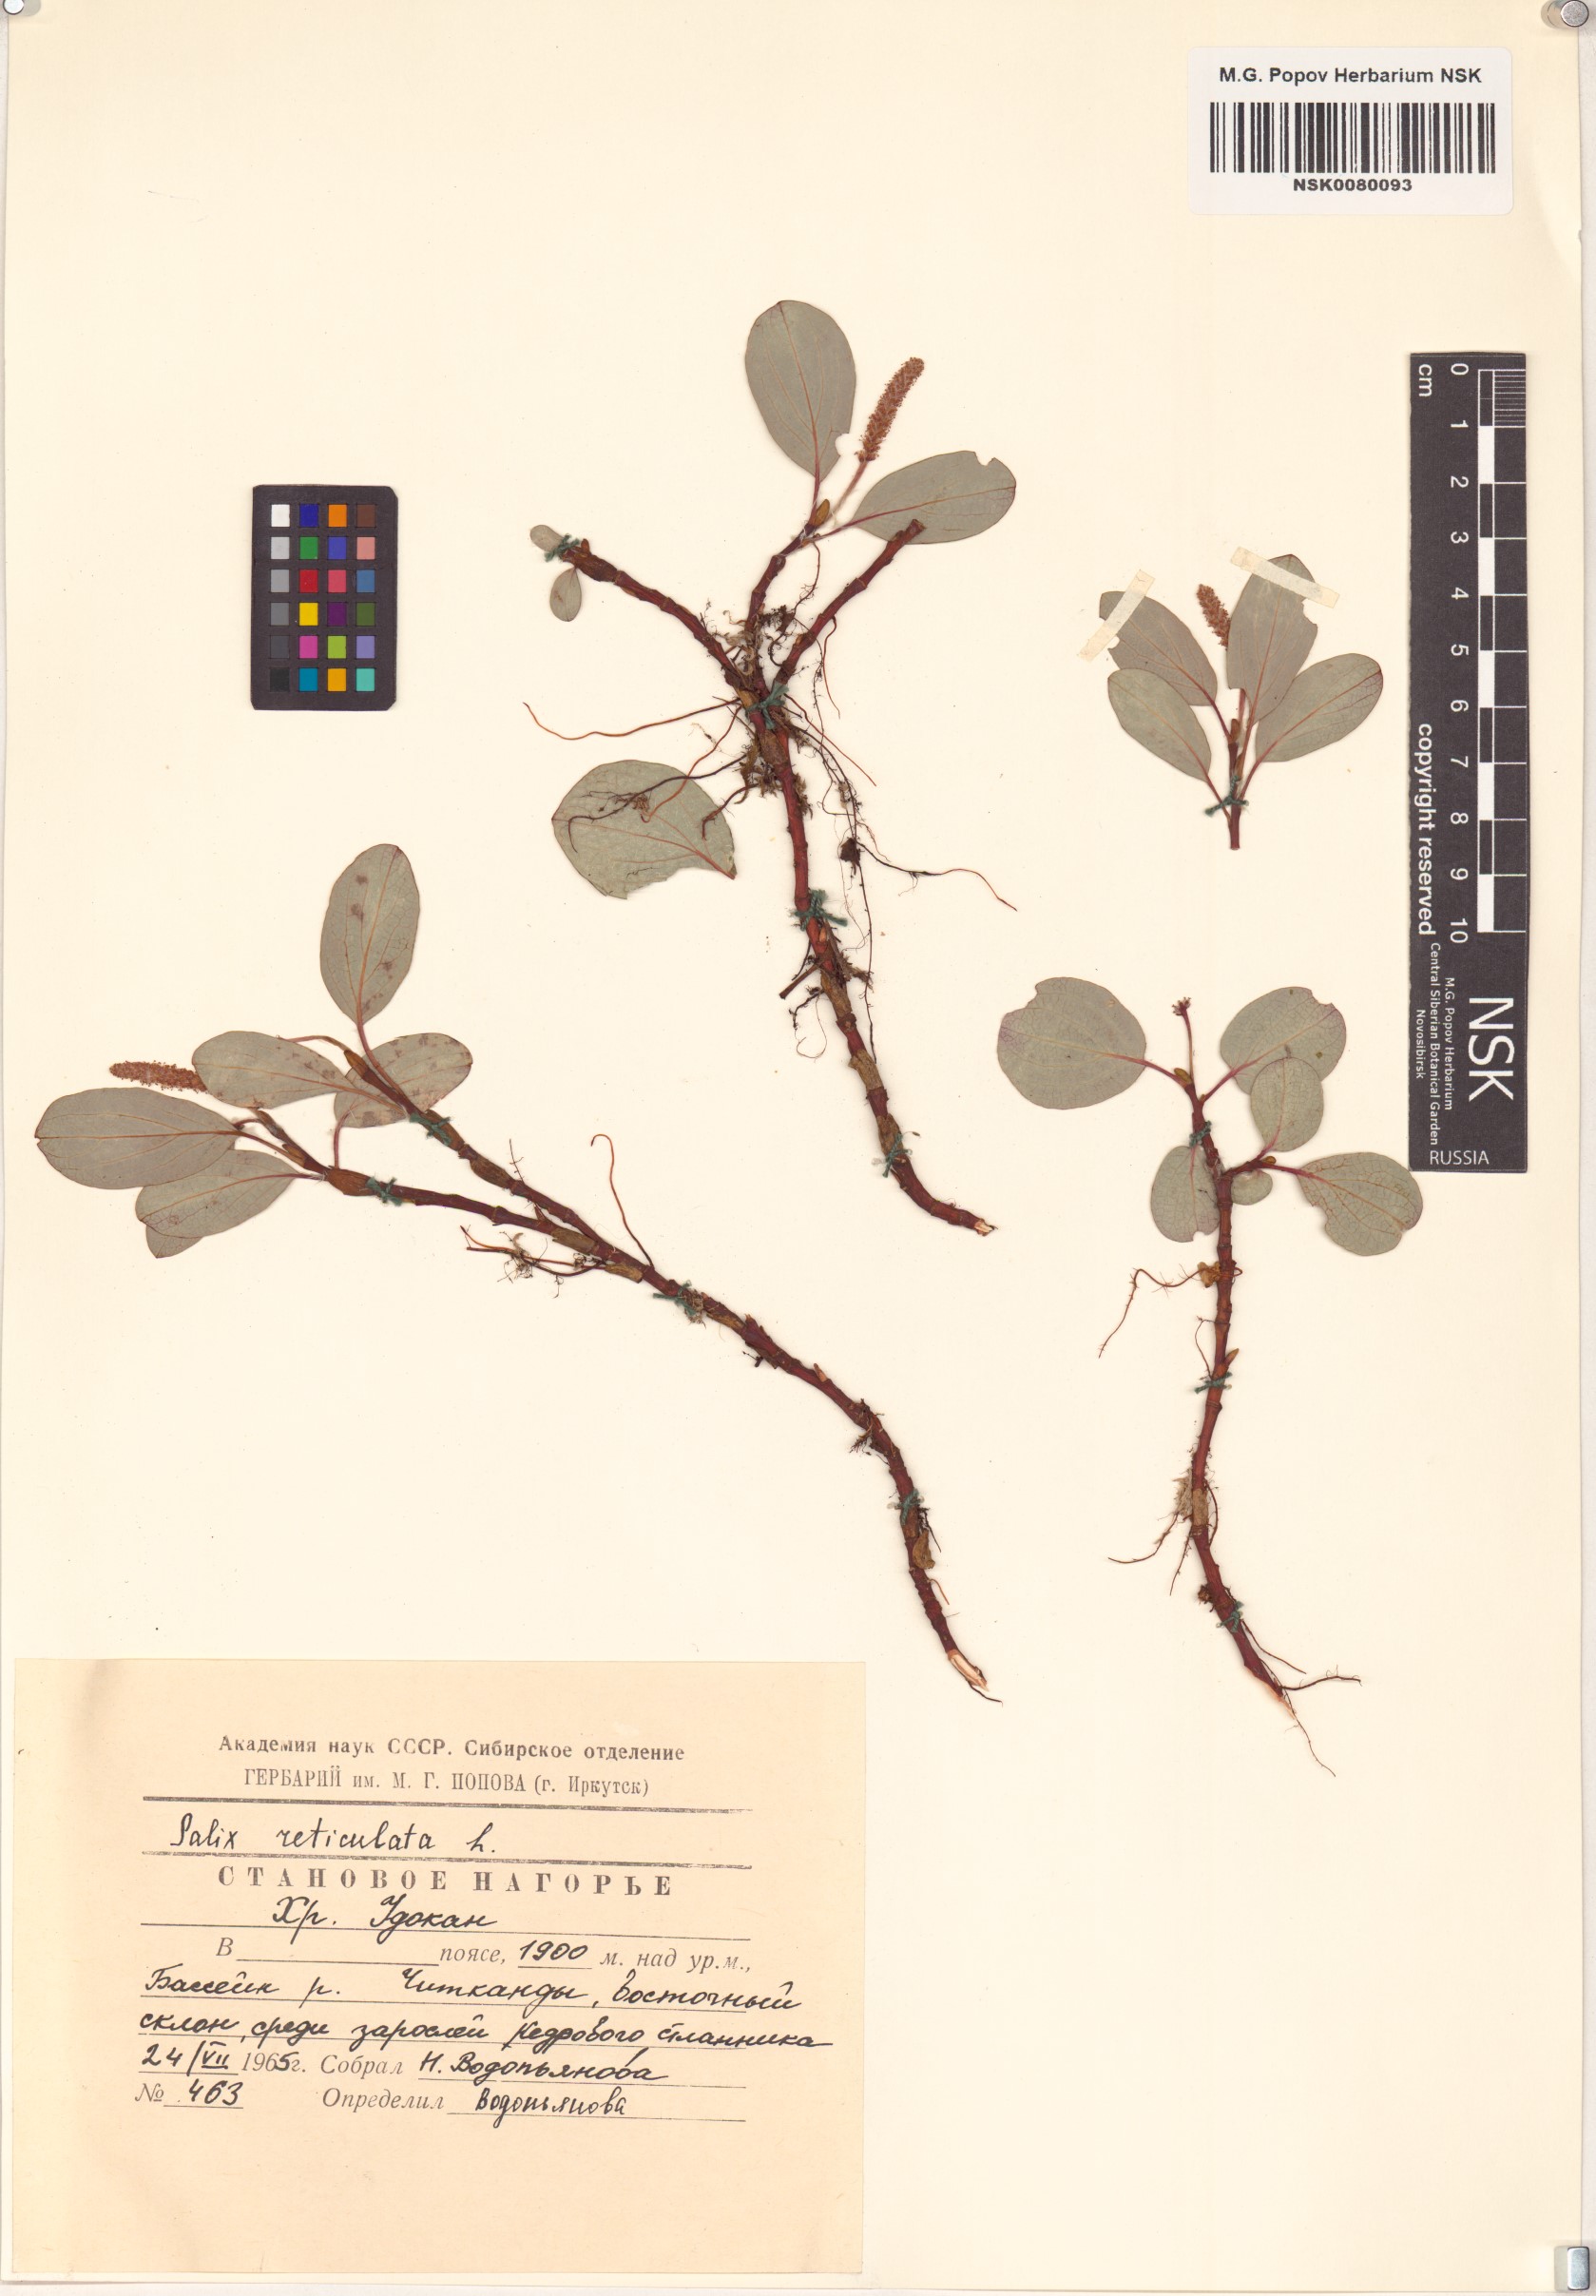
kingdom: Plantae
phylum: Tracheophyta
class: Magnoliopsida
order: Malpighiales
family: Salicaceae
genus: Salix
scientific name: Salix reticulata
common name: Net-leaved willow
